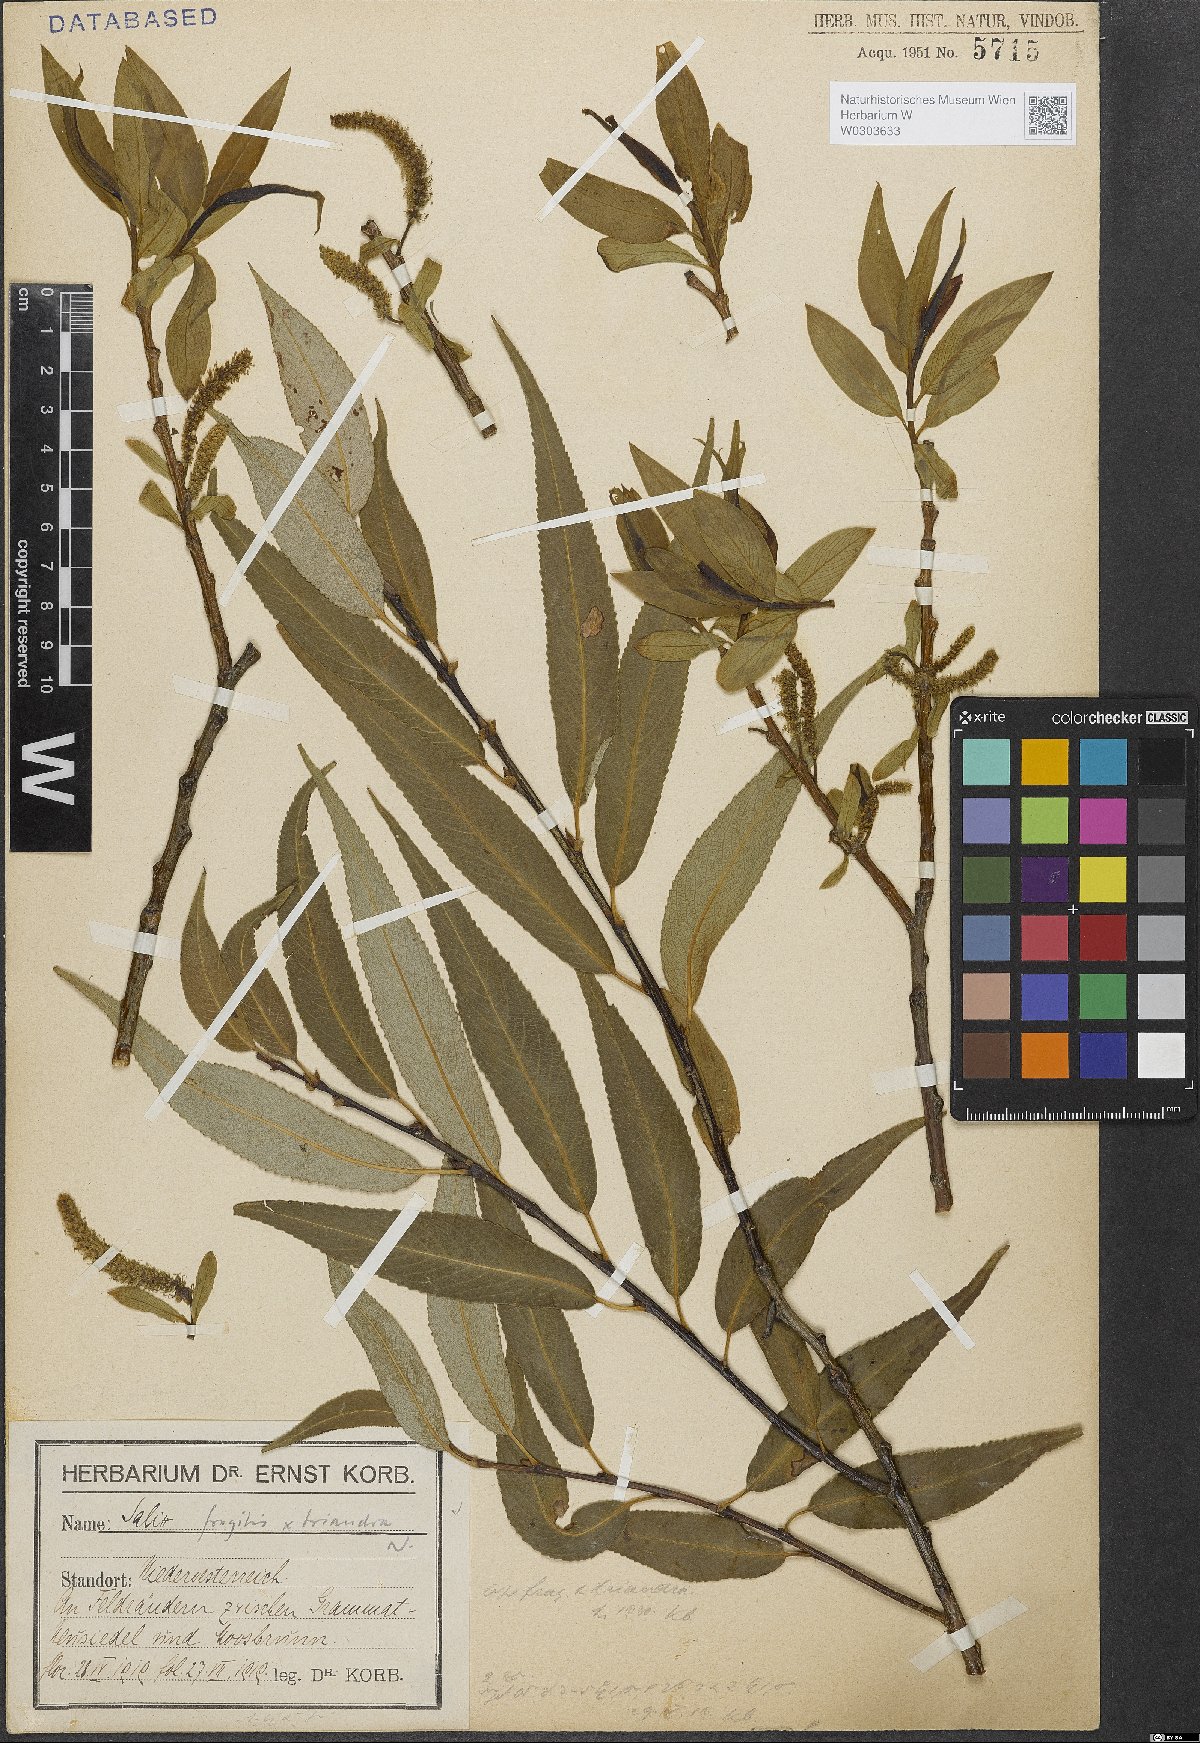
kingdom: Plantae
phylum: Tracheophyta
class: Magnoliopsida
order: Malpighiales
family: Salicaceae
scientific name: Salicaceae
